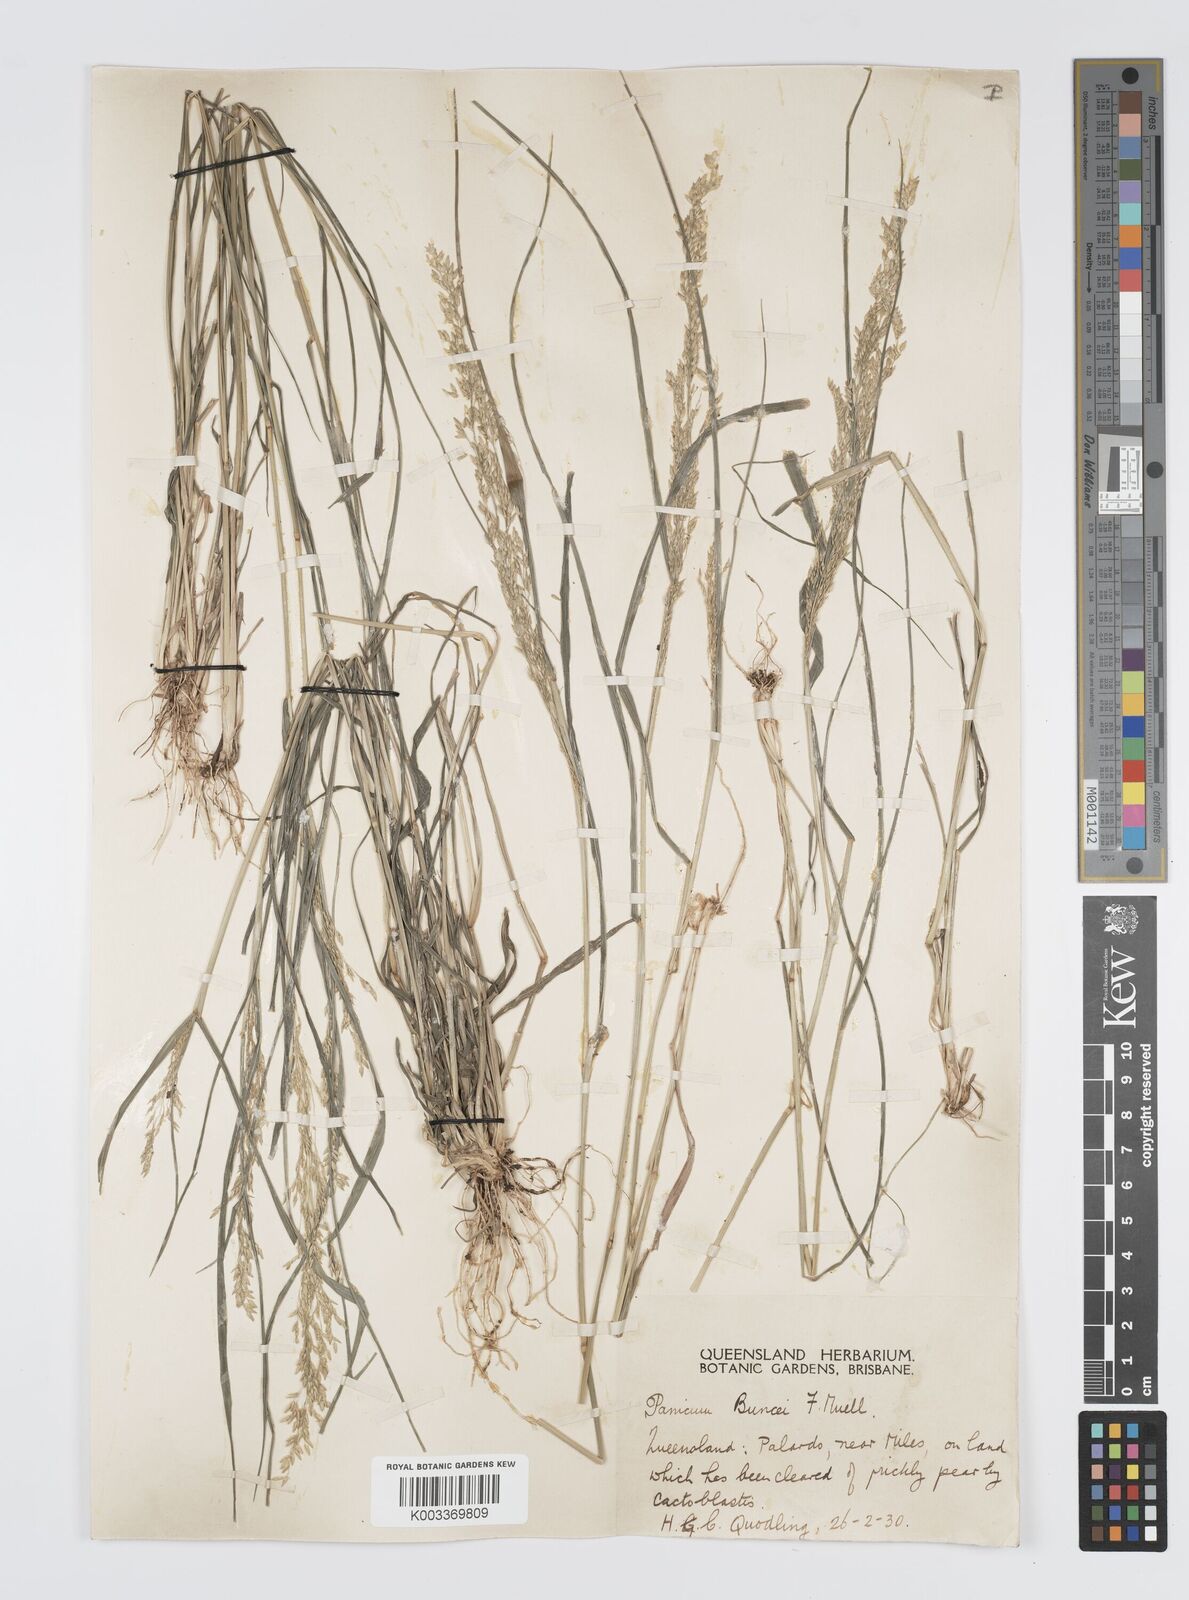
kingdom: Plantae
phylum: Tracheophyta
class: Liliopsida
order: Poales
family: Poaceae
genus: Panicum
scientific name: Panicum buncei
